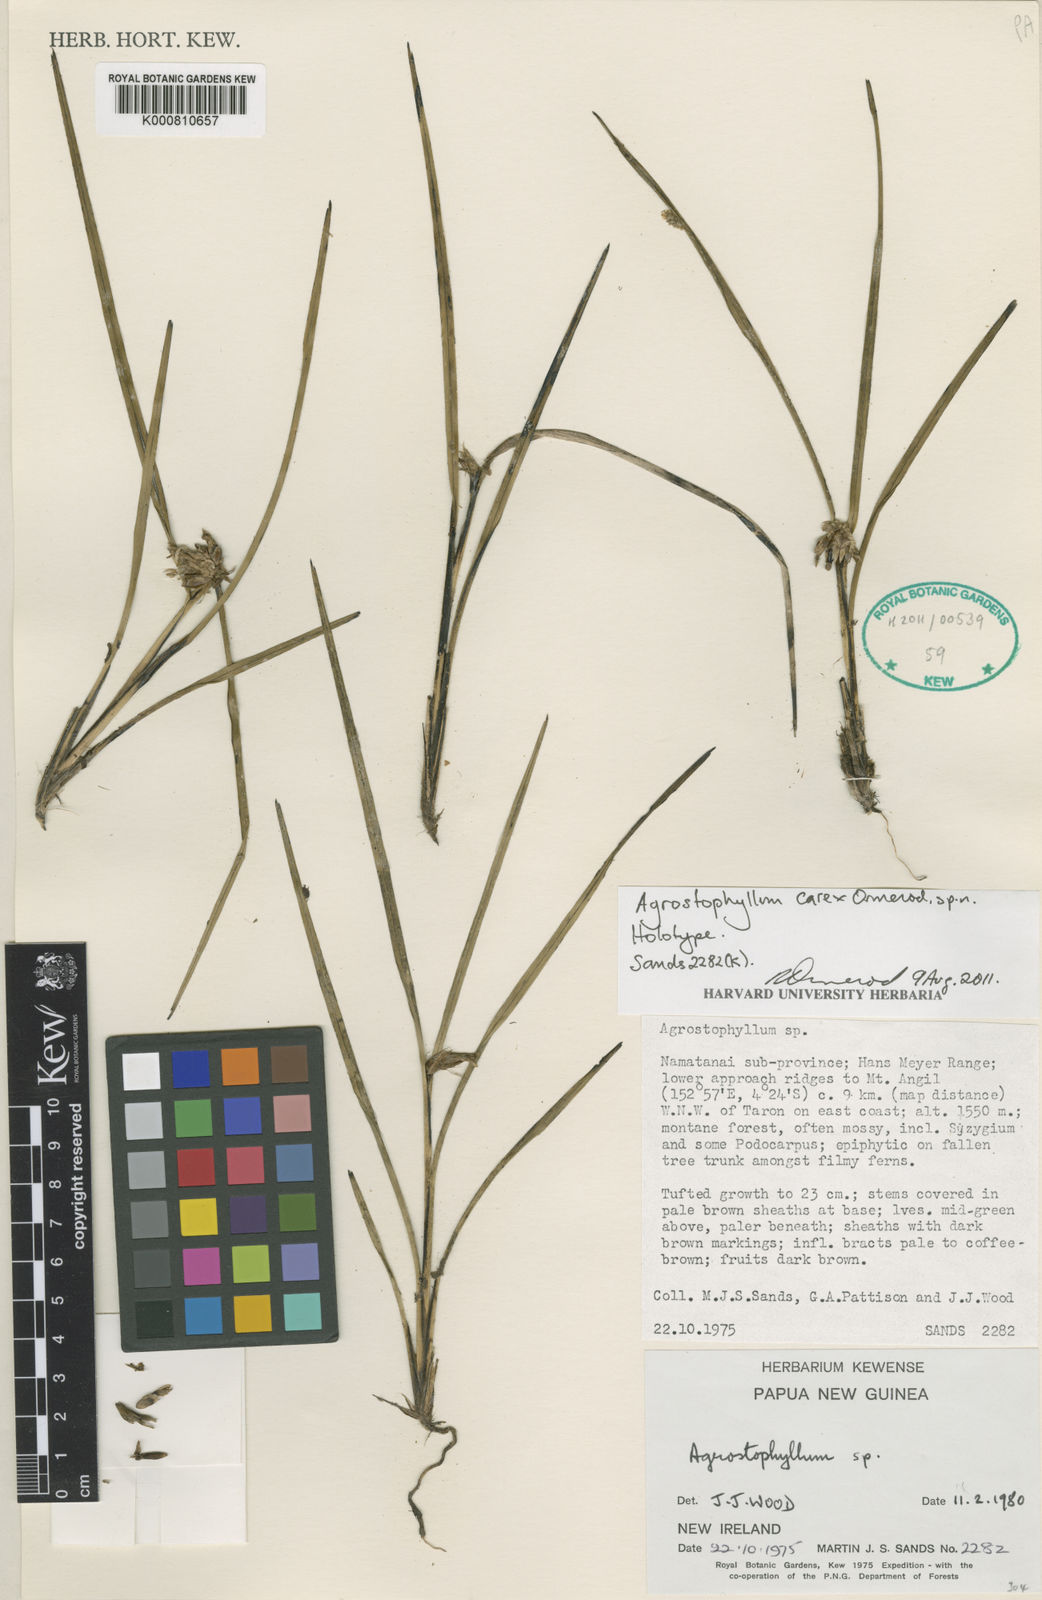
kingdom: Plantae
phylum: Tracheophyta
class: Liliopsida
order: Asparagales
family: Orchidaceae
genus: Agrostophyllum
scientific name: Agrostophyllum carex
